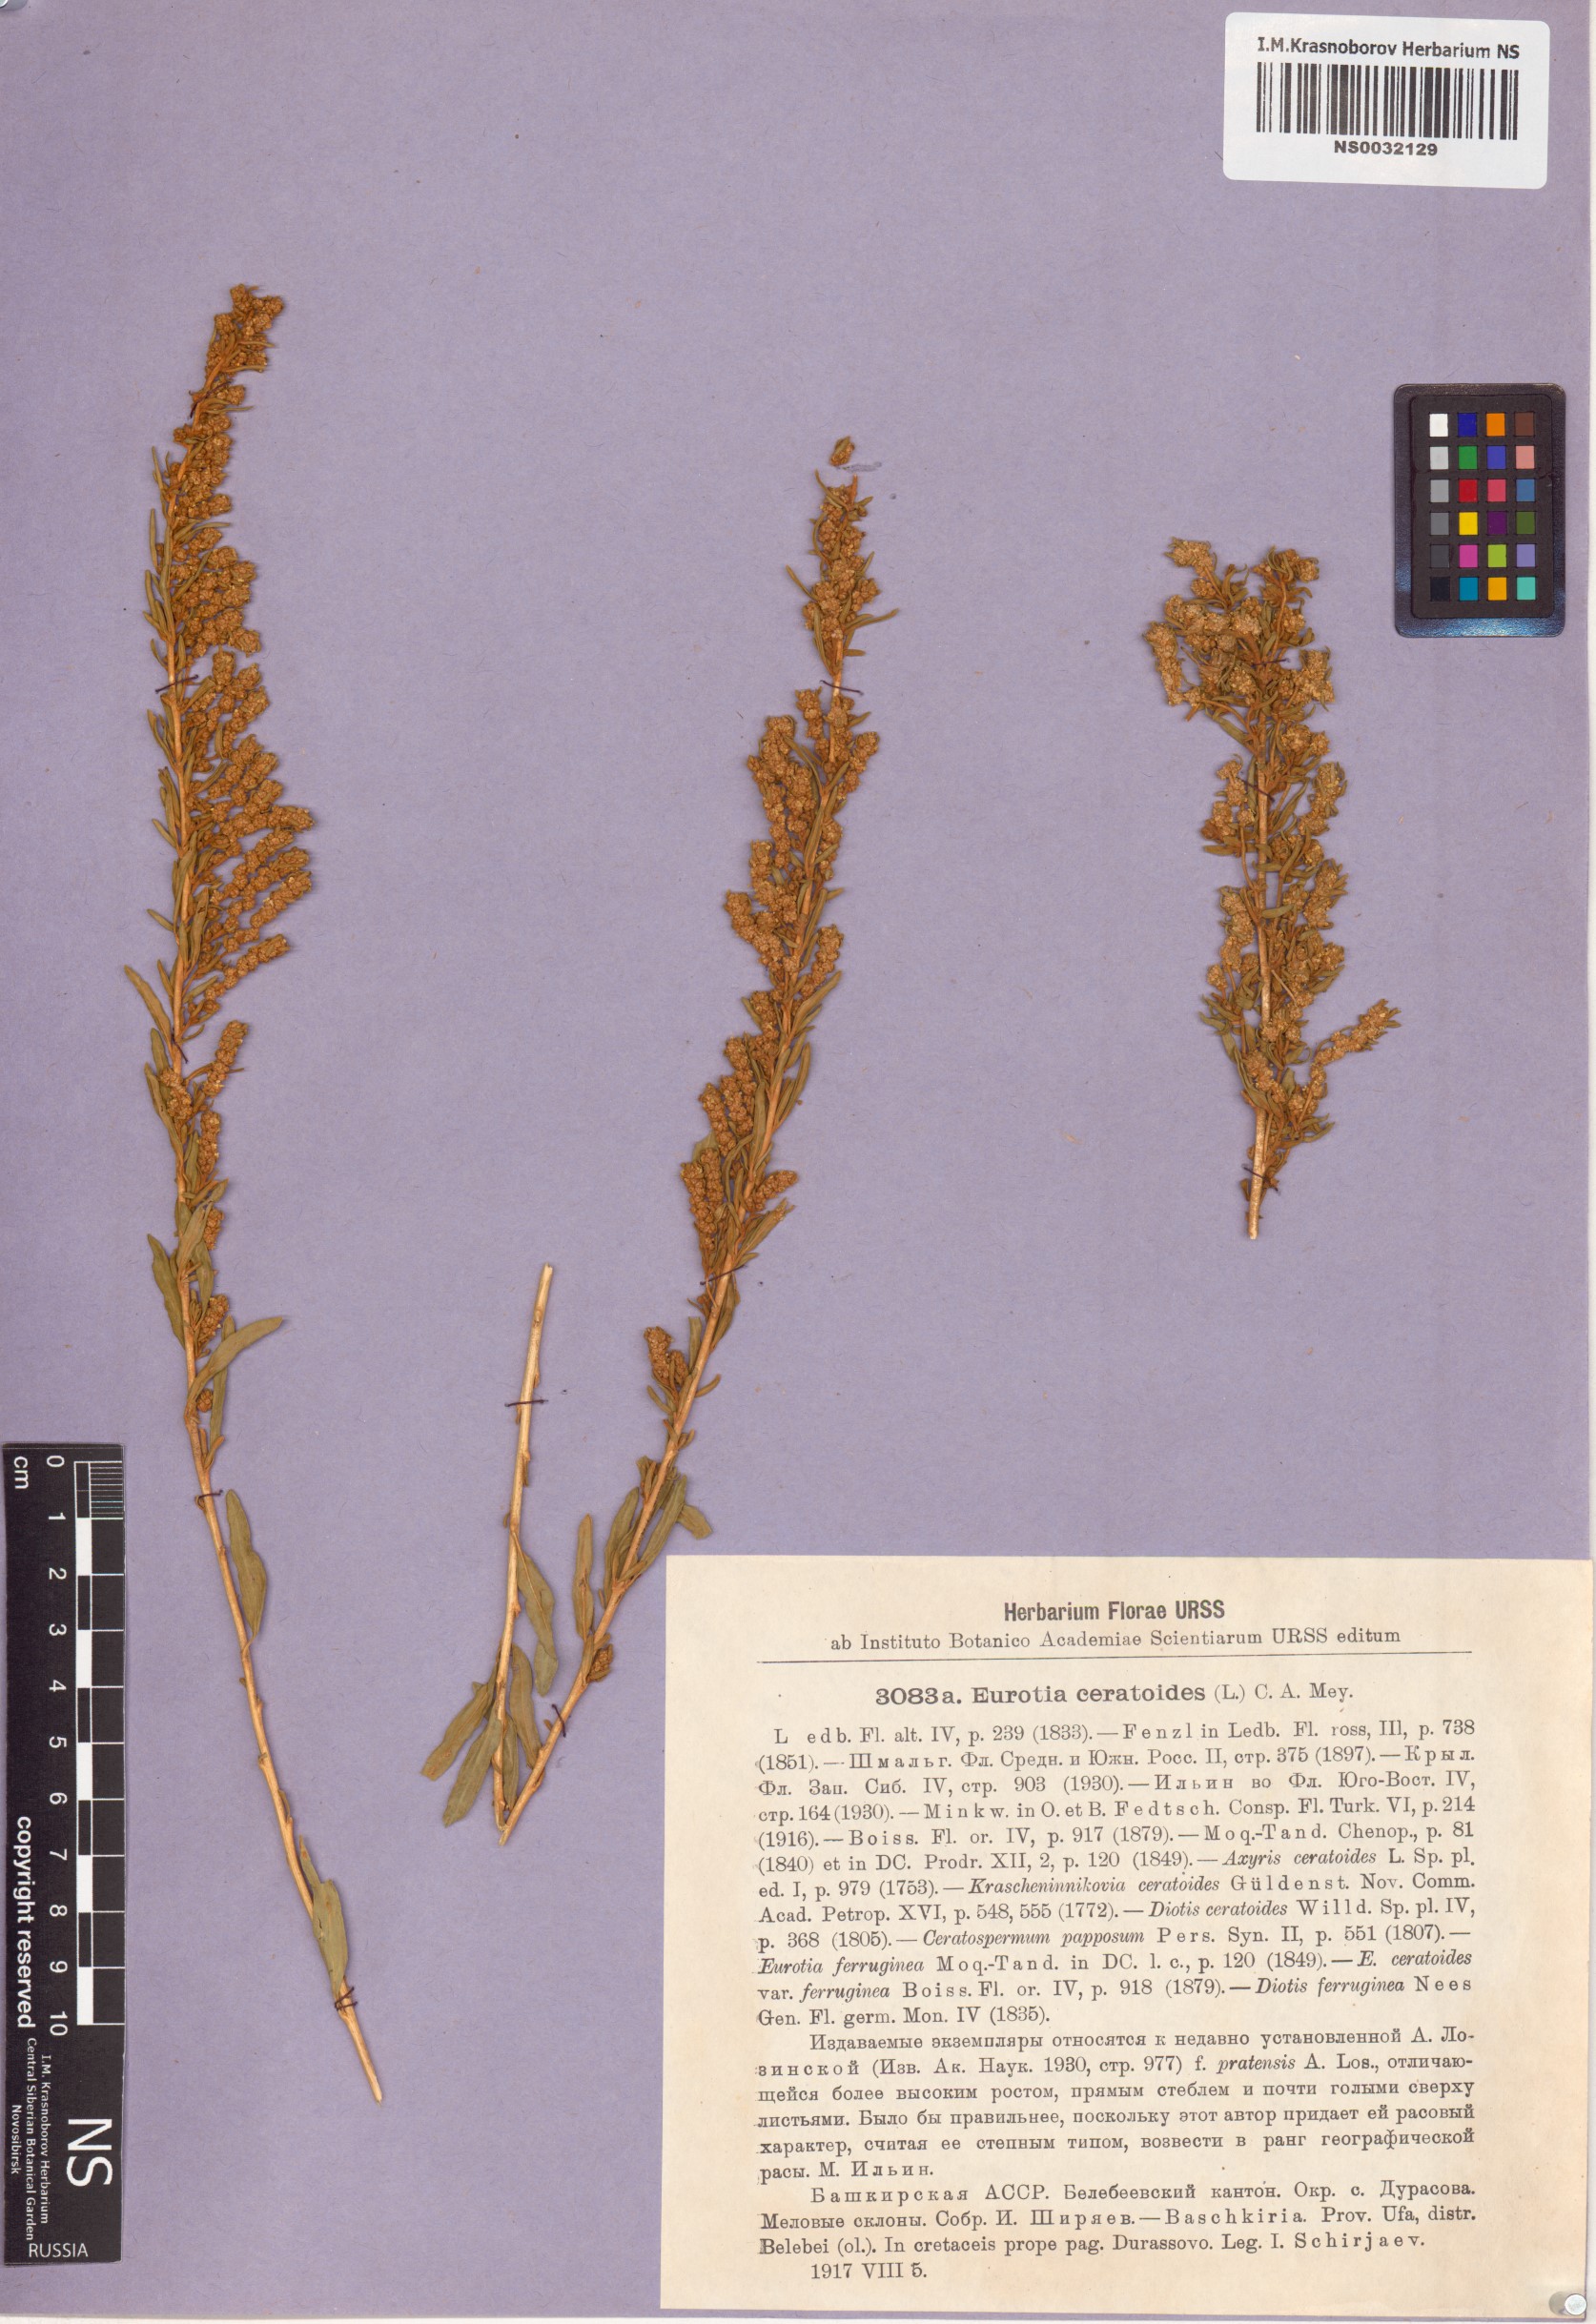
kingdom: Plantae
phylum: Tracheophyta
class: Magnoliopsida
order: Caryophyllales
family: Amaranthaceae
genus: Krascheninnikovia
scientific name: Krascheninnikovia ceratoides
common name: Pamirian winterfat
